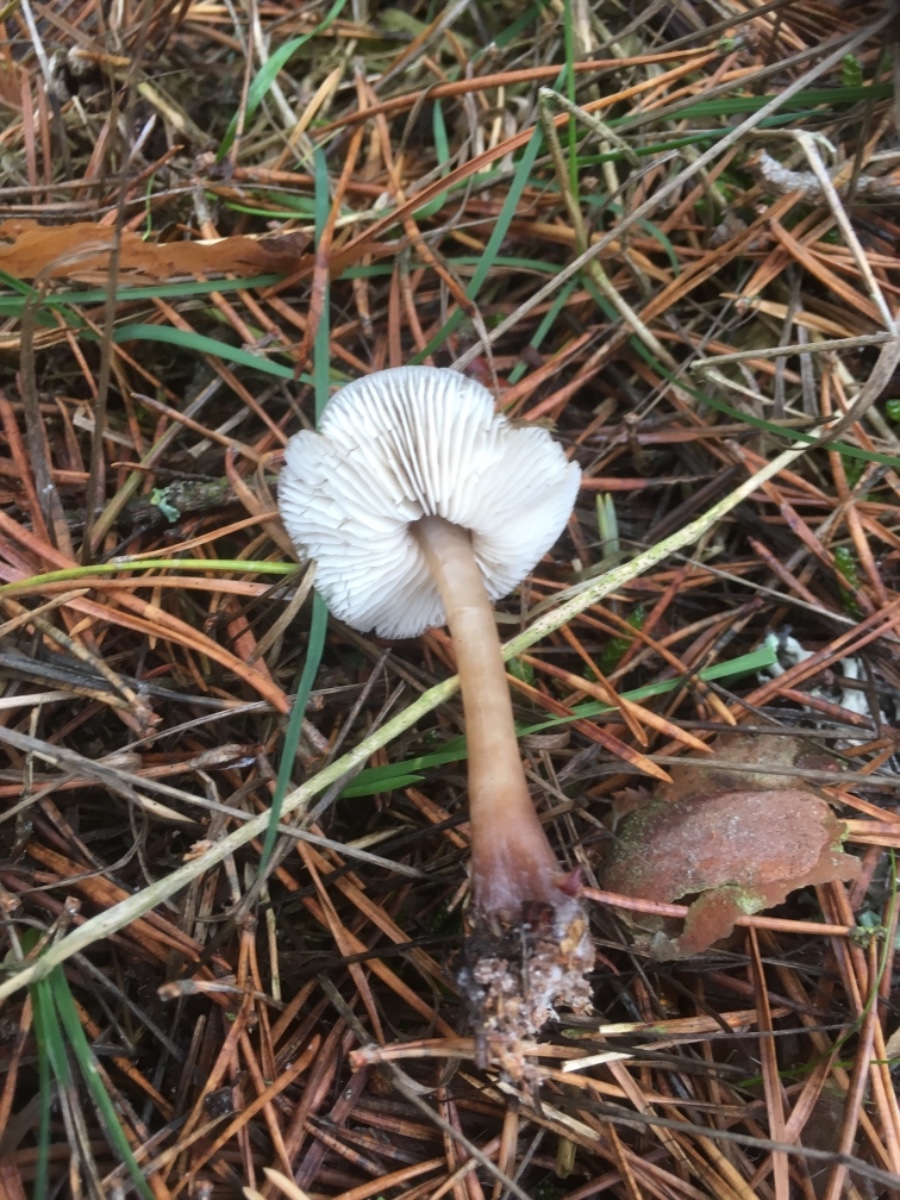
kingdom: Fungi
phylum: Basidiomycota
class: Agaricomycetes
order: Agaricales
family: Omphalotaceae
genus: Rhodocollybia
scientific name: Rhodocollybia asema
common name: horngrå fladhat
